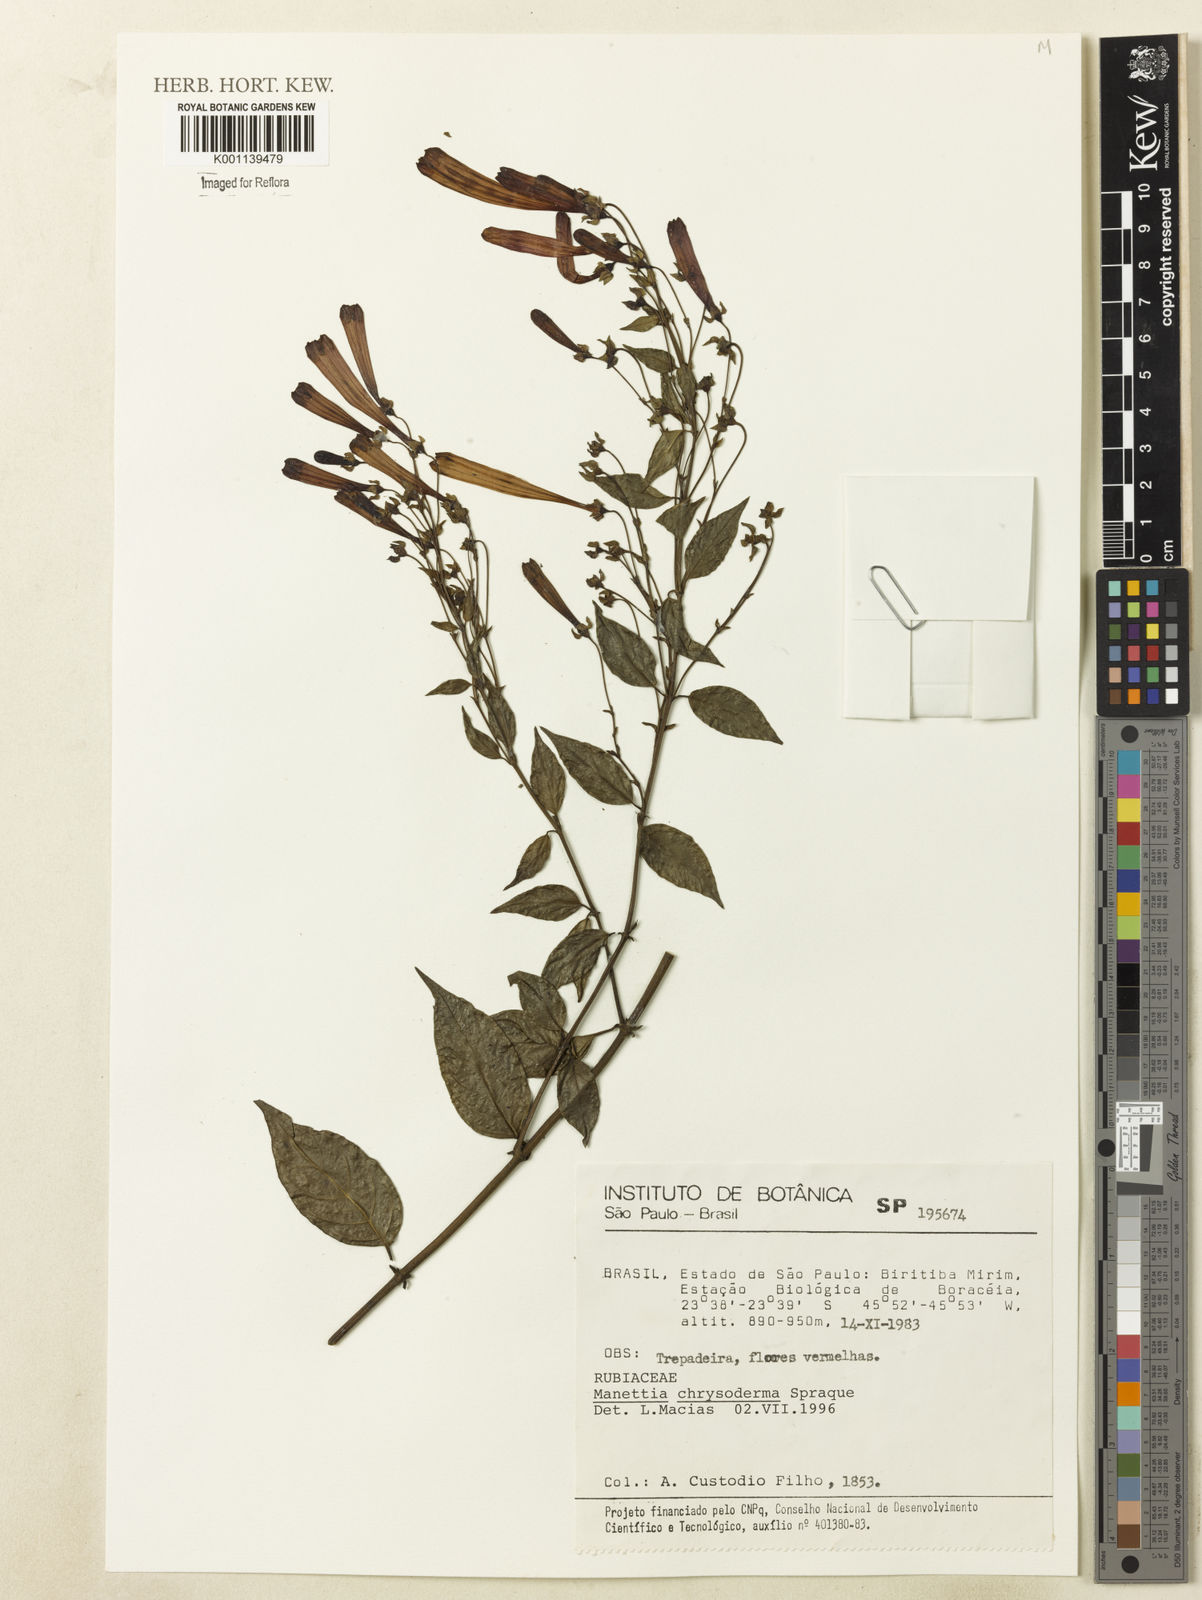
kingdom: Plantae
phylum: Tracheophyta
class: Magnoliopsida
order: Gentianales
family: Rubiaceae
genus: Manettia
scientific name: Manettia chrysoderma
